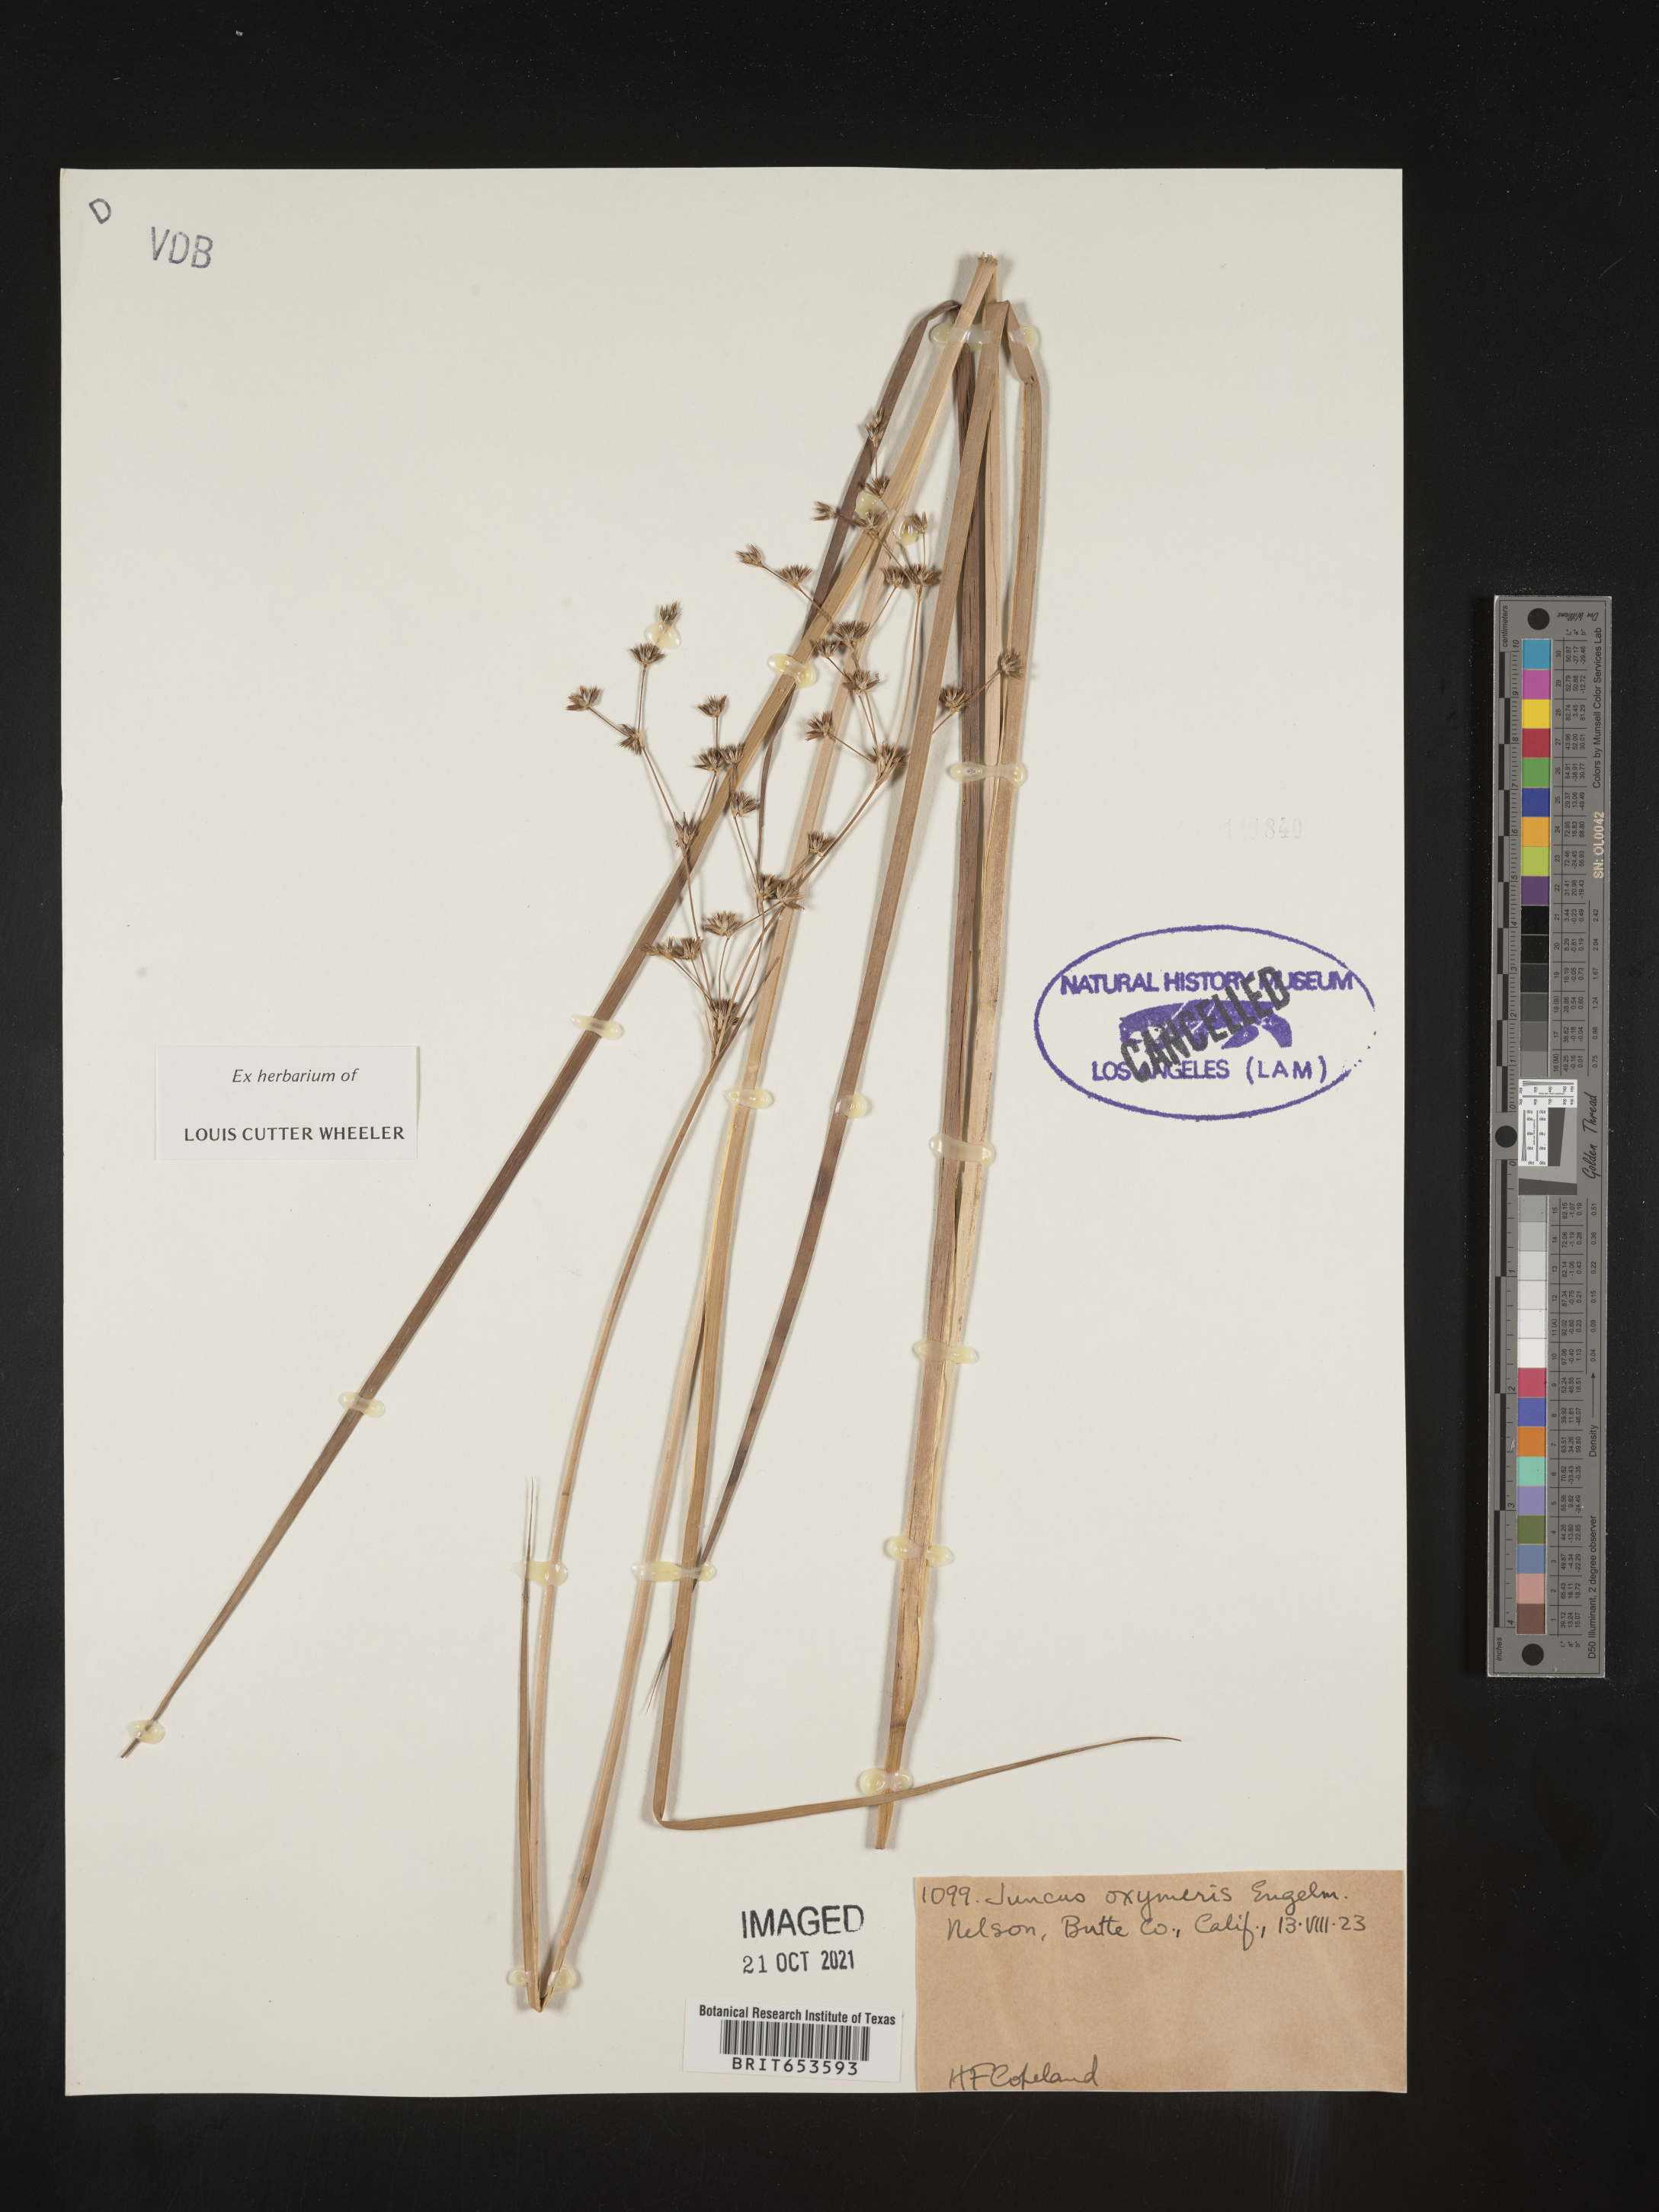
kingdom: Plantae
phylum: Tracheophyta
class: Liliopsida
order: Poales
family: Juncaceae
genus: Juncus
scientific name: Juncus oxymeris
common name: Pointed rush
